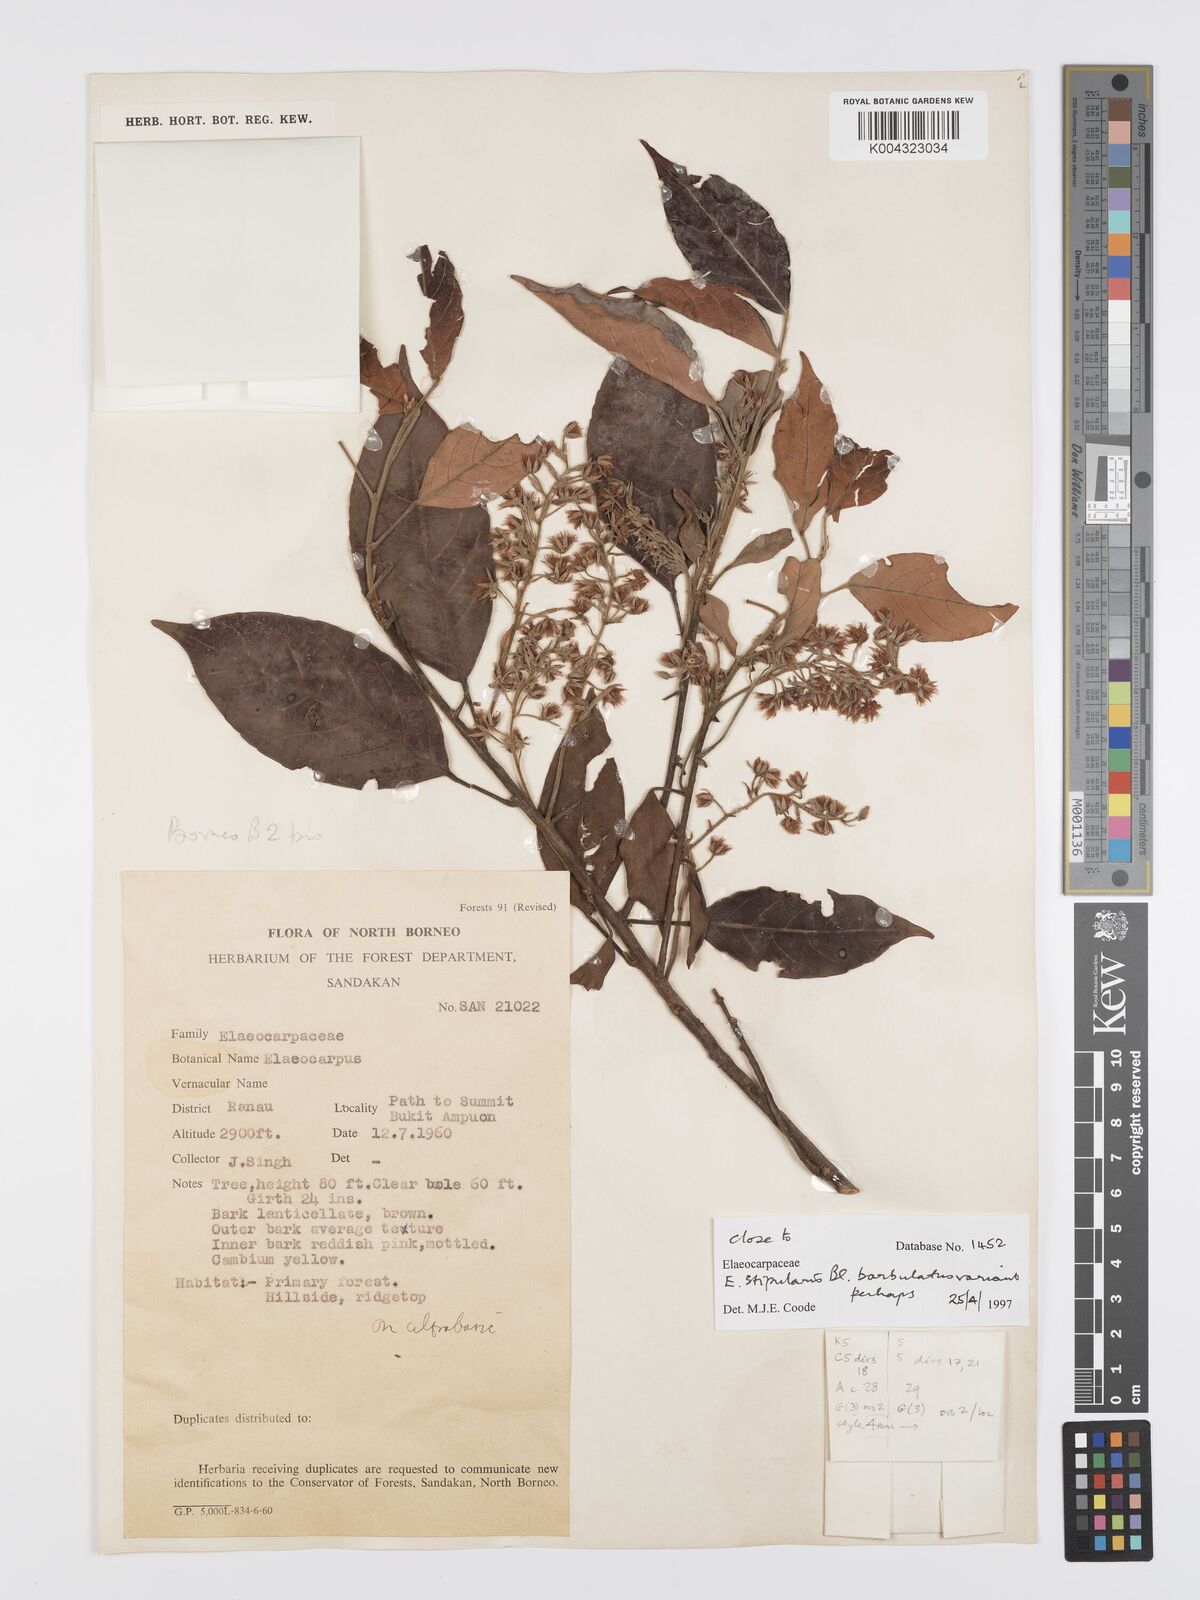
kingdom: Plantae
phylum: Tracheophyta
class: Magnoliopsida
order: Oxalidales
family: Elaeocarpaceae
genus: Elaeocarpus
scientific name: Elaeocarpus stipularis
